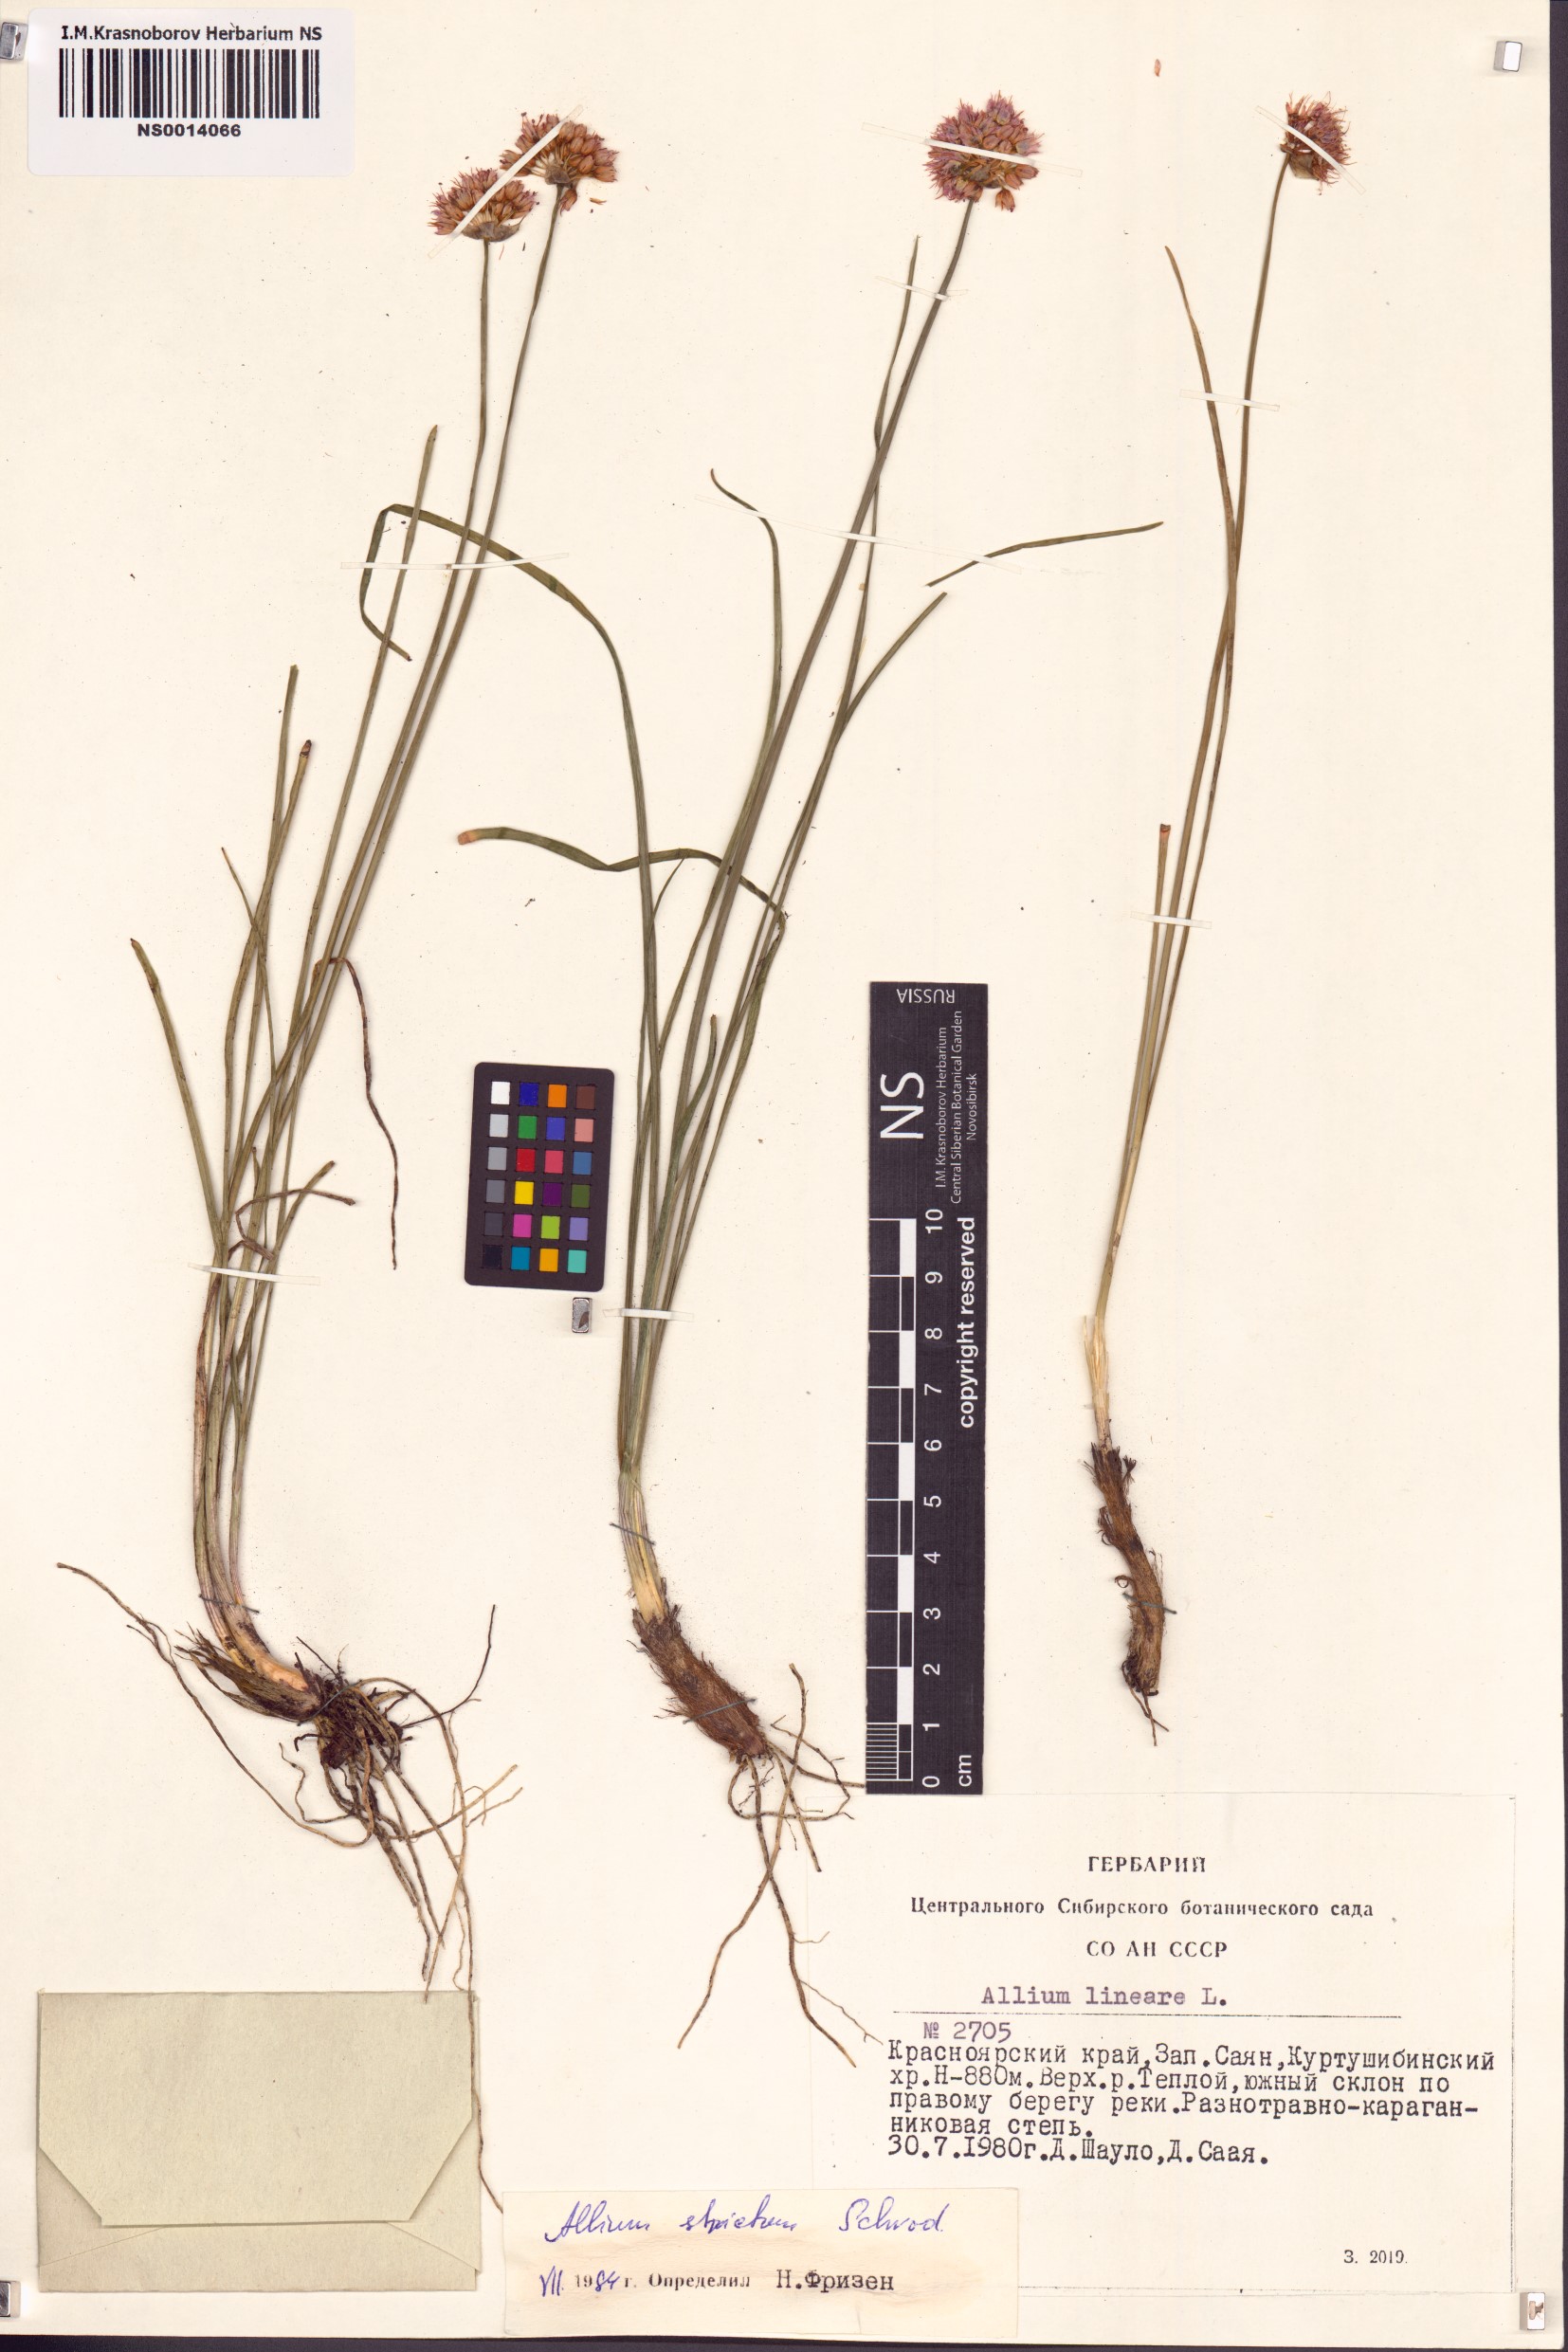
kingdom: Plantae
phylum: Tracheophyta
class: Liliopsida
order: Asparagales
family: Amaryllidaceae
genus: Allium
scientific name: Allium strictum
